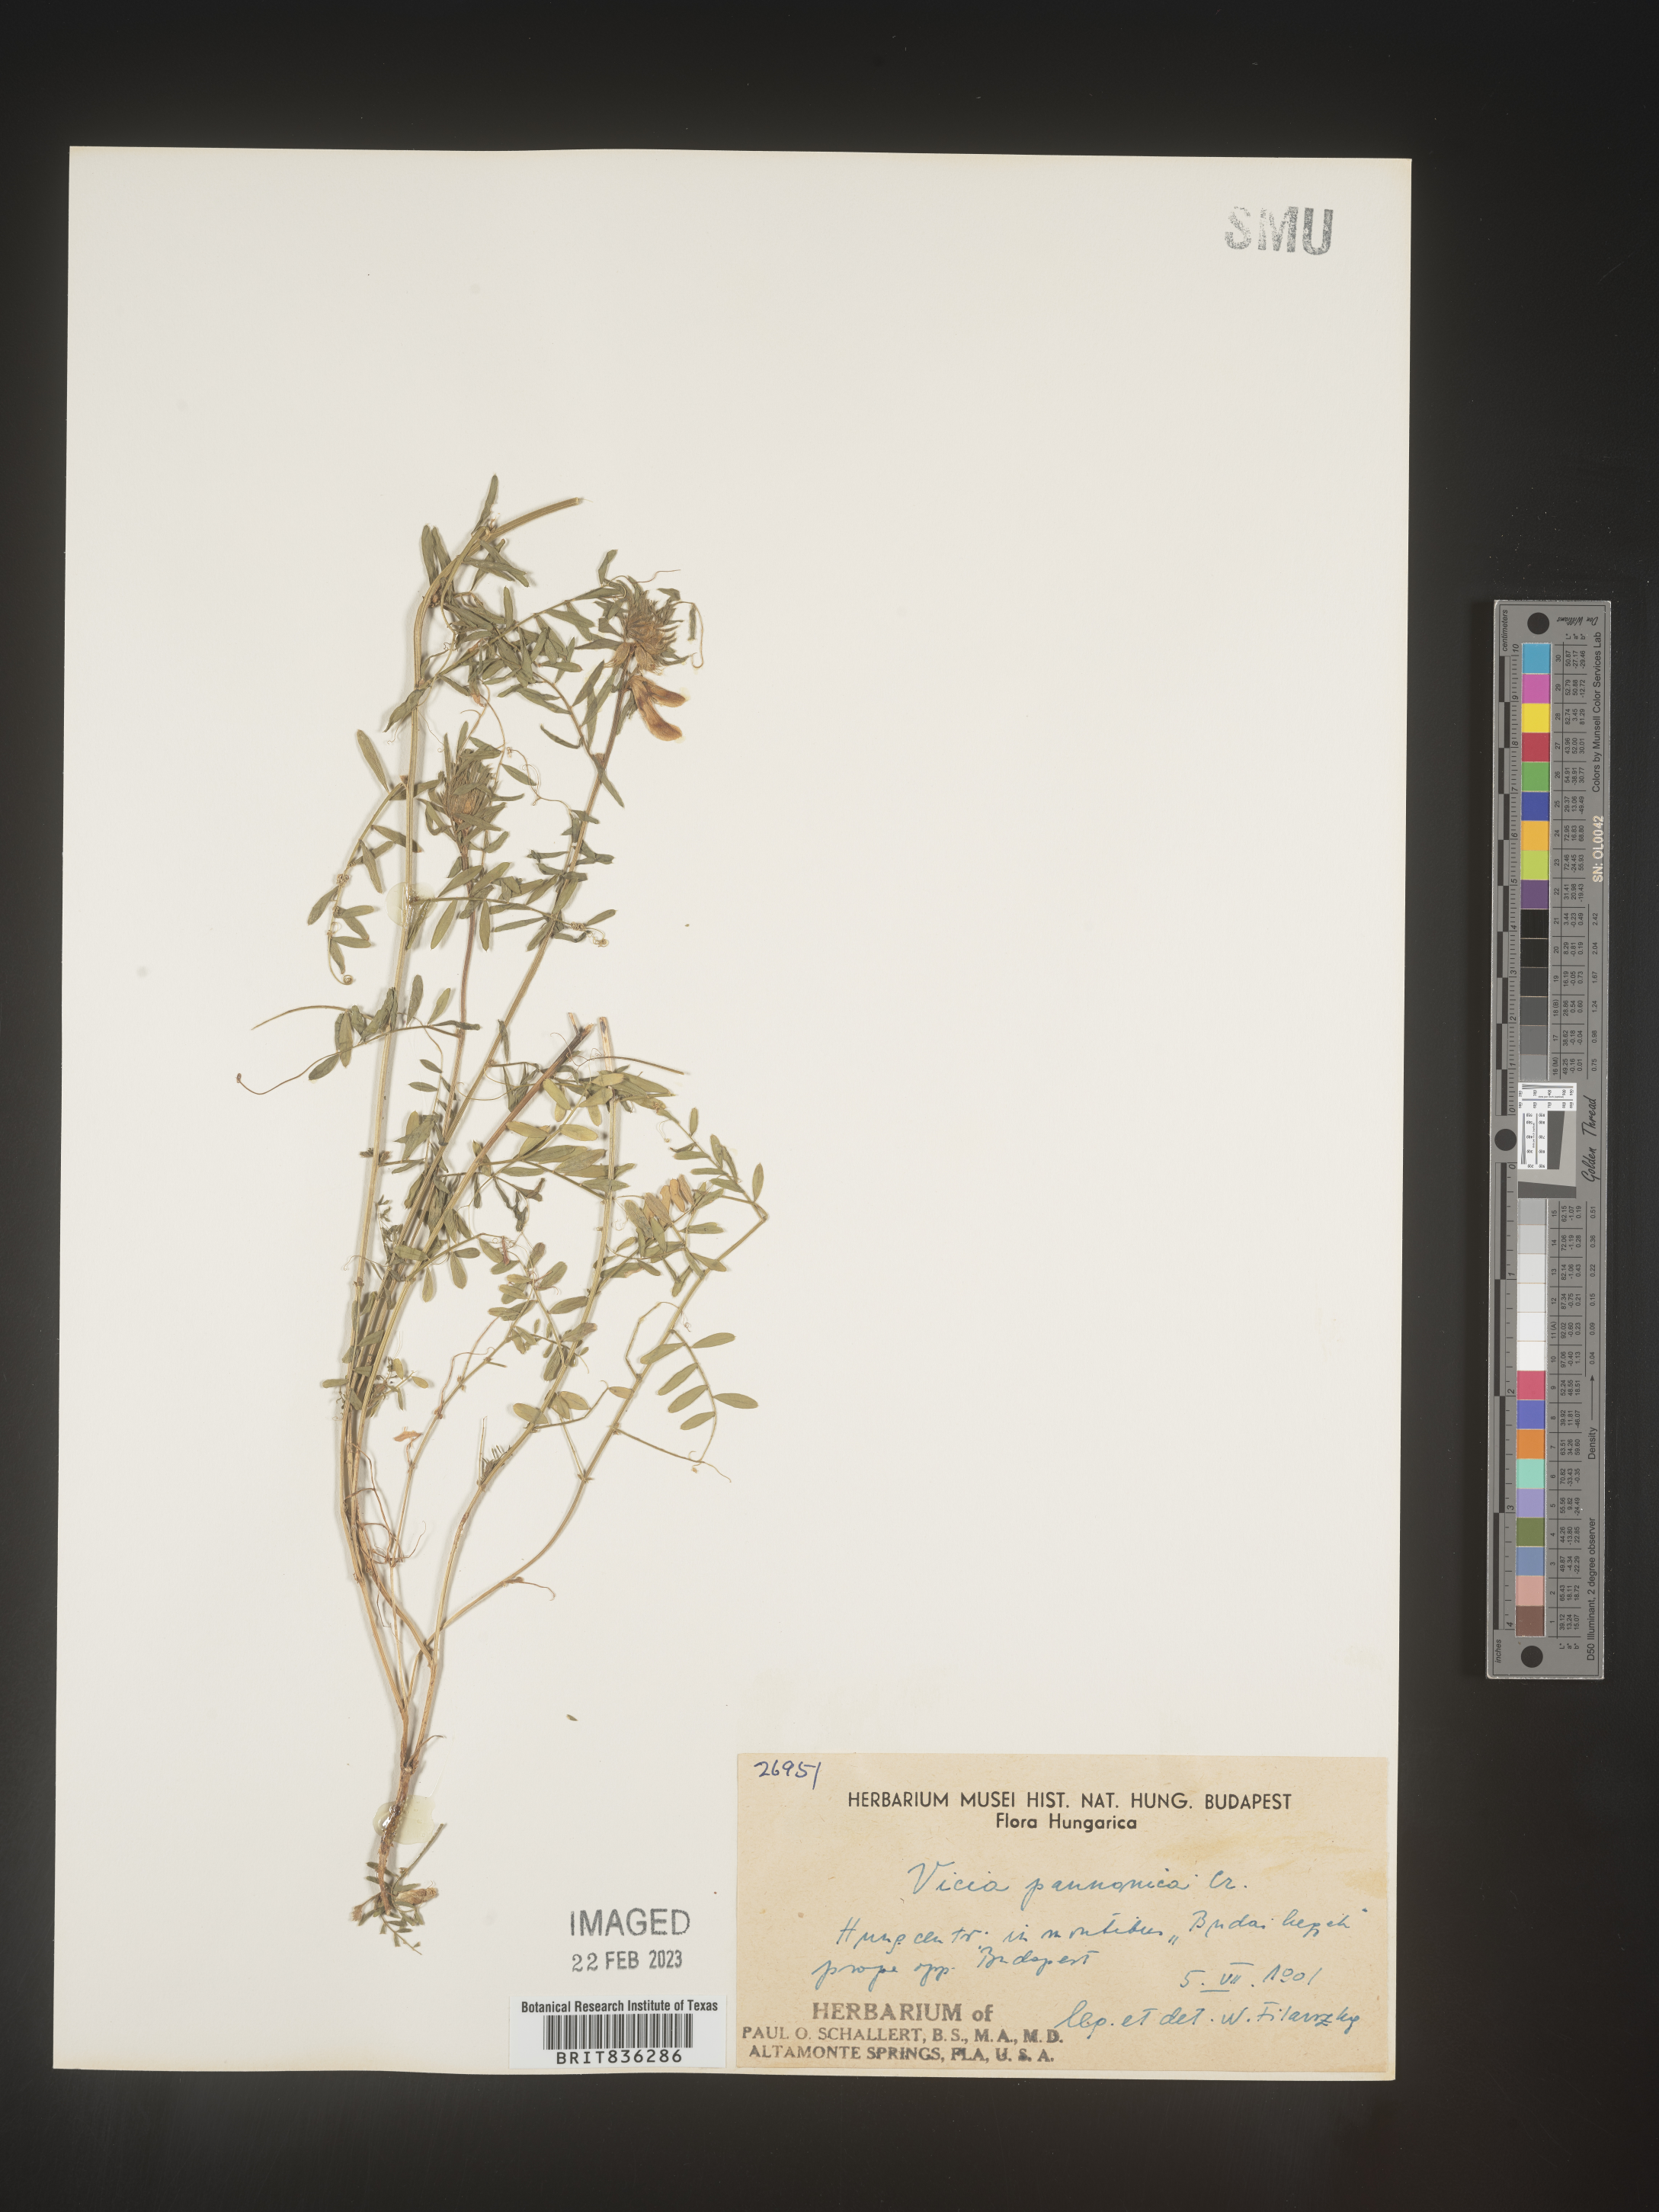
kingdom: Plantae
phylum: Tracheophyta
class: Magnoliopsida
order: Fabales
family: Fabaceae
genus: Vicia
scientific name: Vicia
